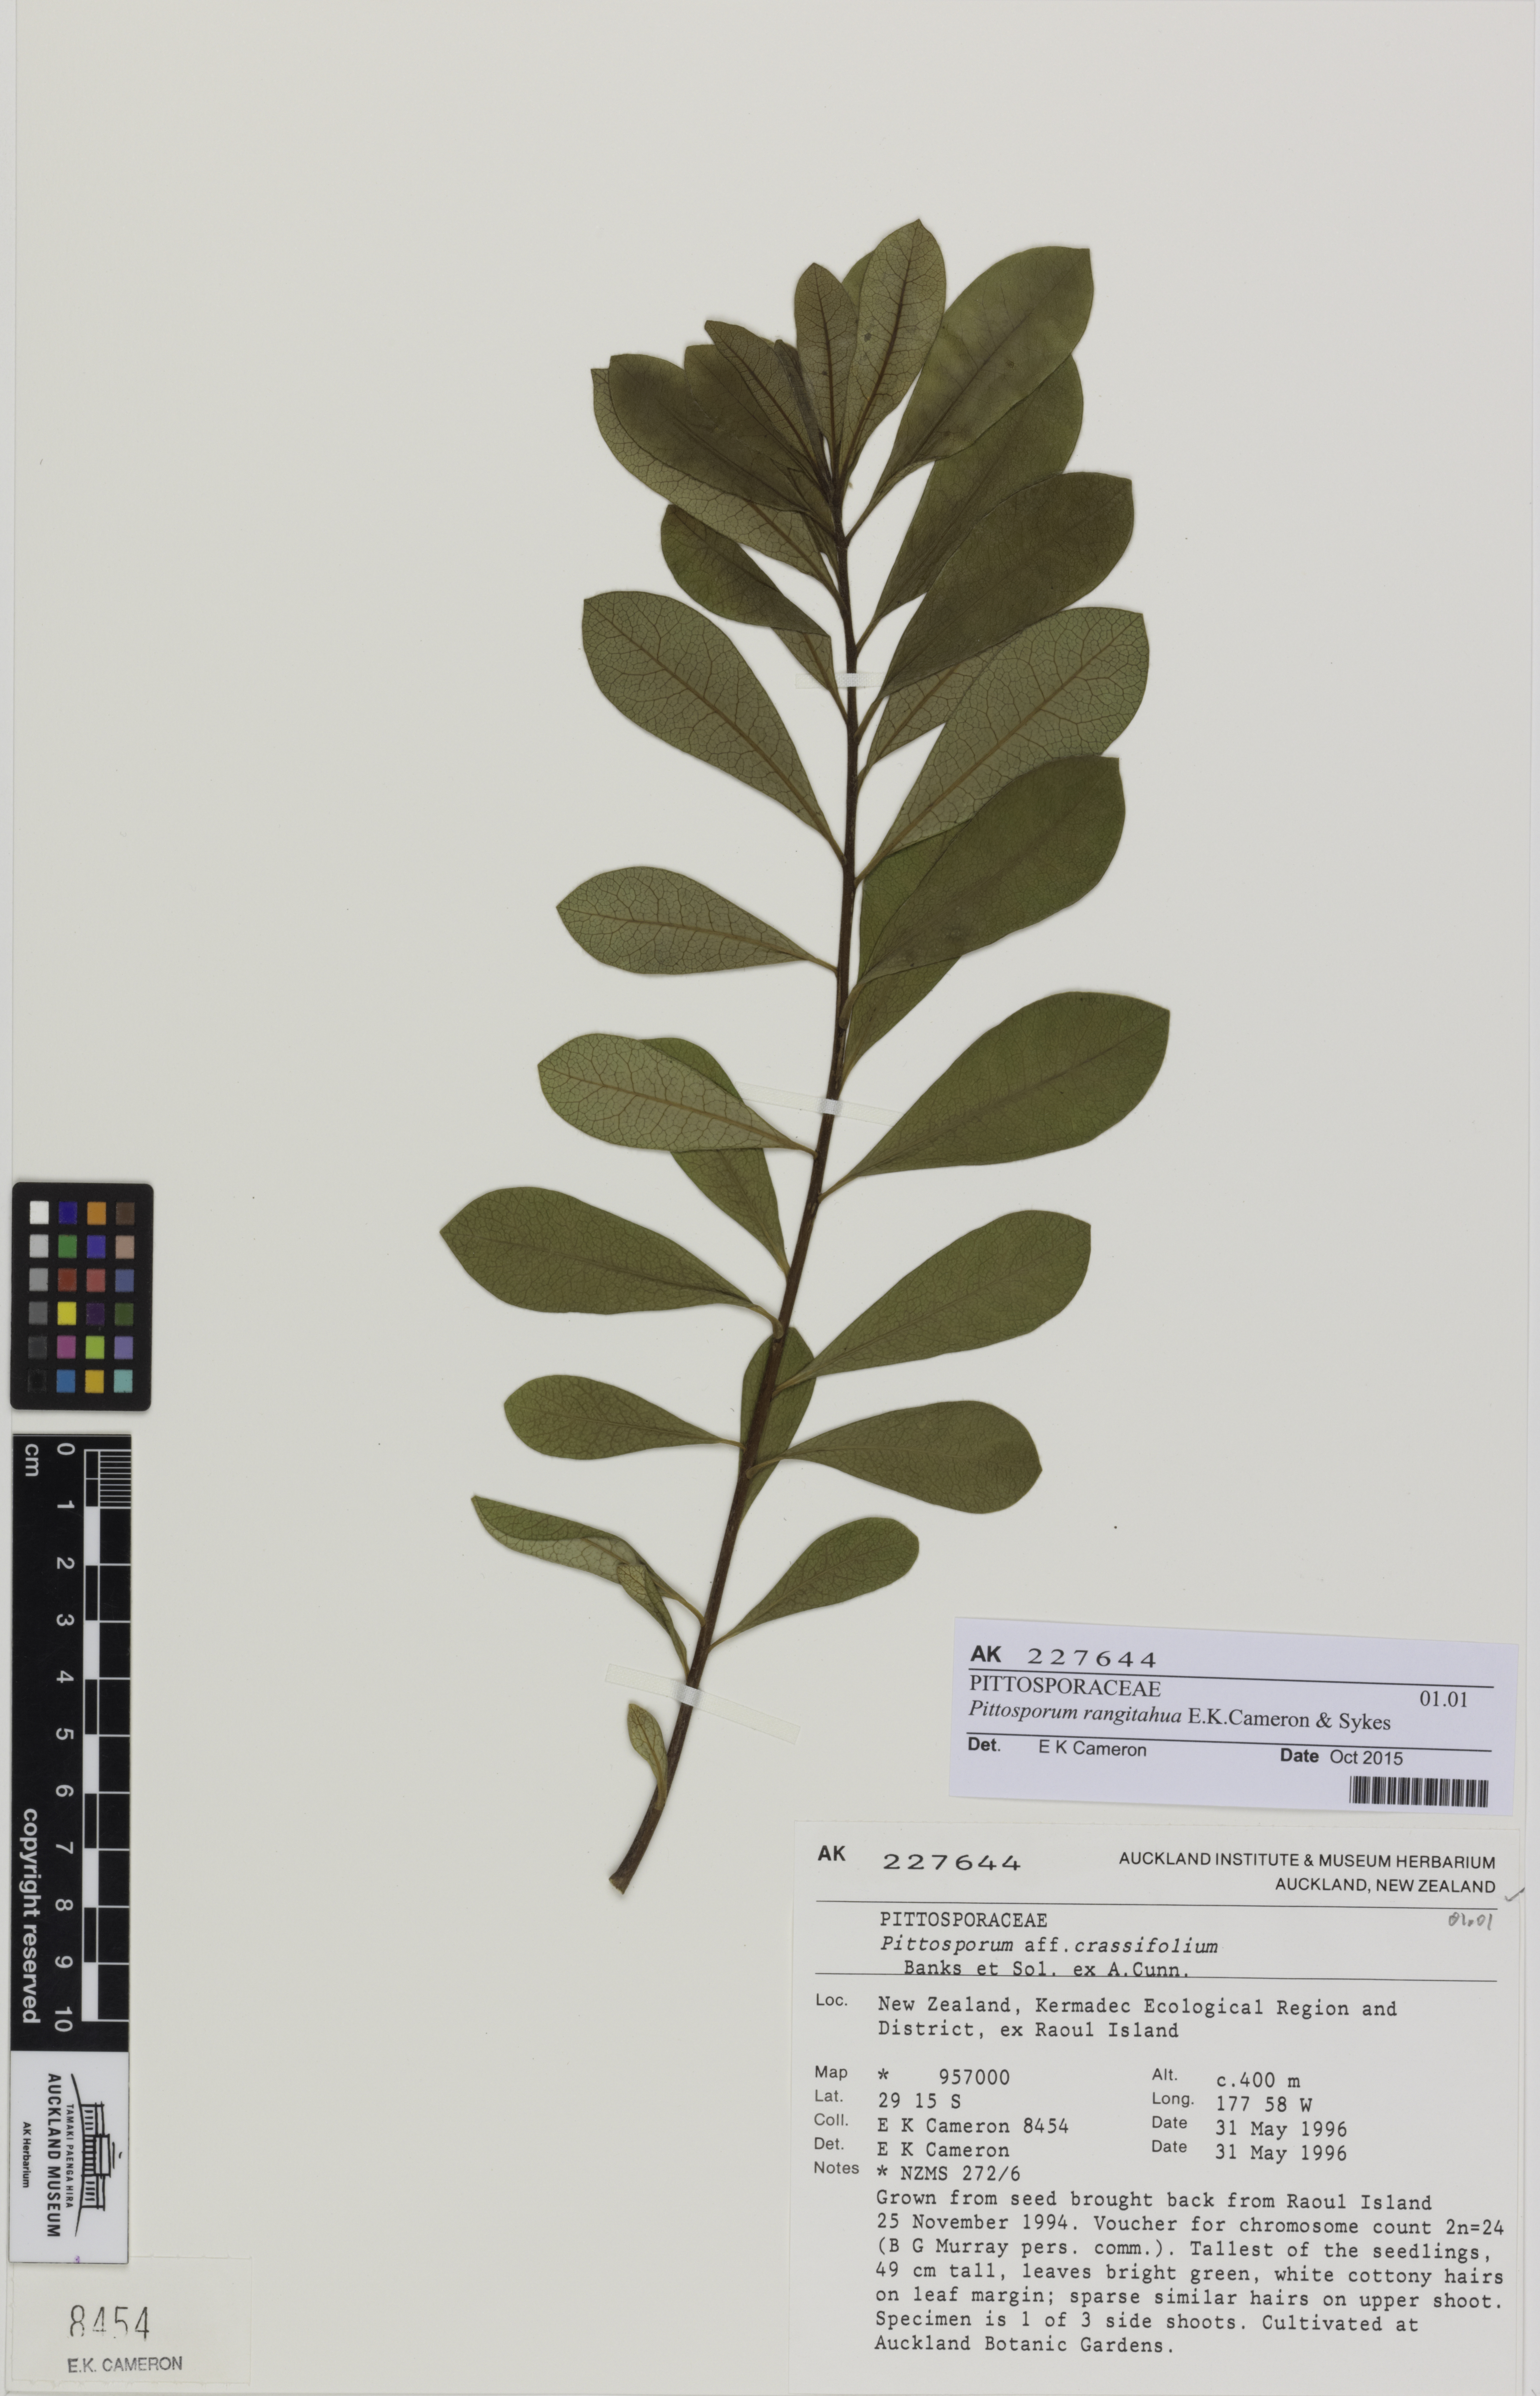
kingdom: Plantae
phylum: Tracheophyta
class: Magnoliopsida
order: Apiales
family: Pittosporaceae
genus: Pittosporum
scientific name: Pittosporum rangitahua
